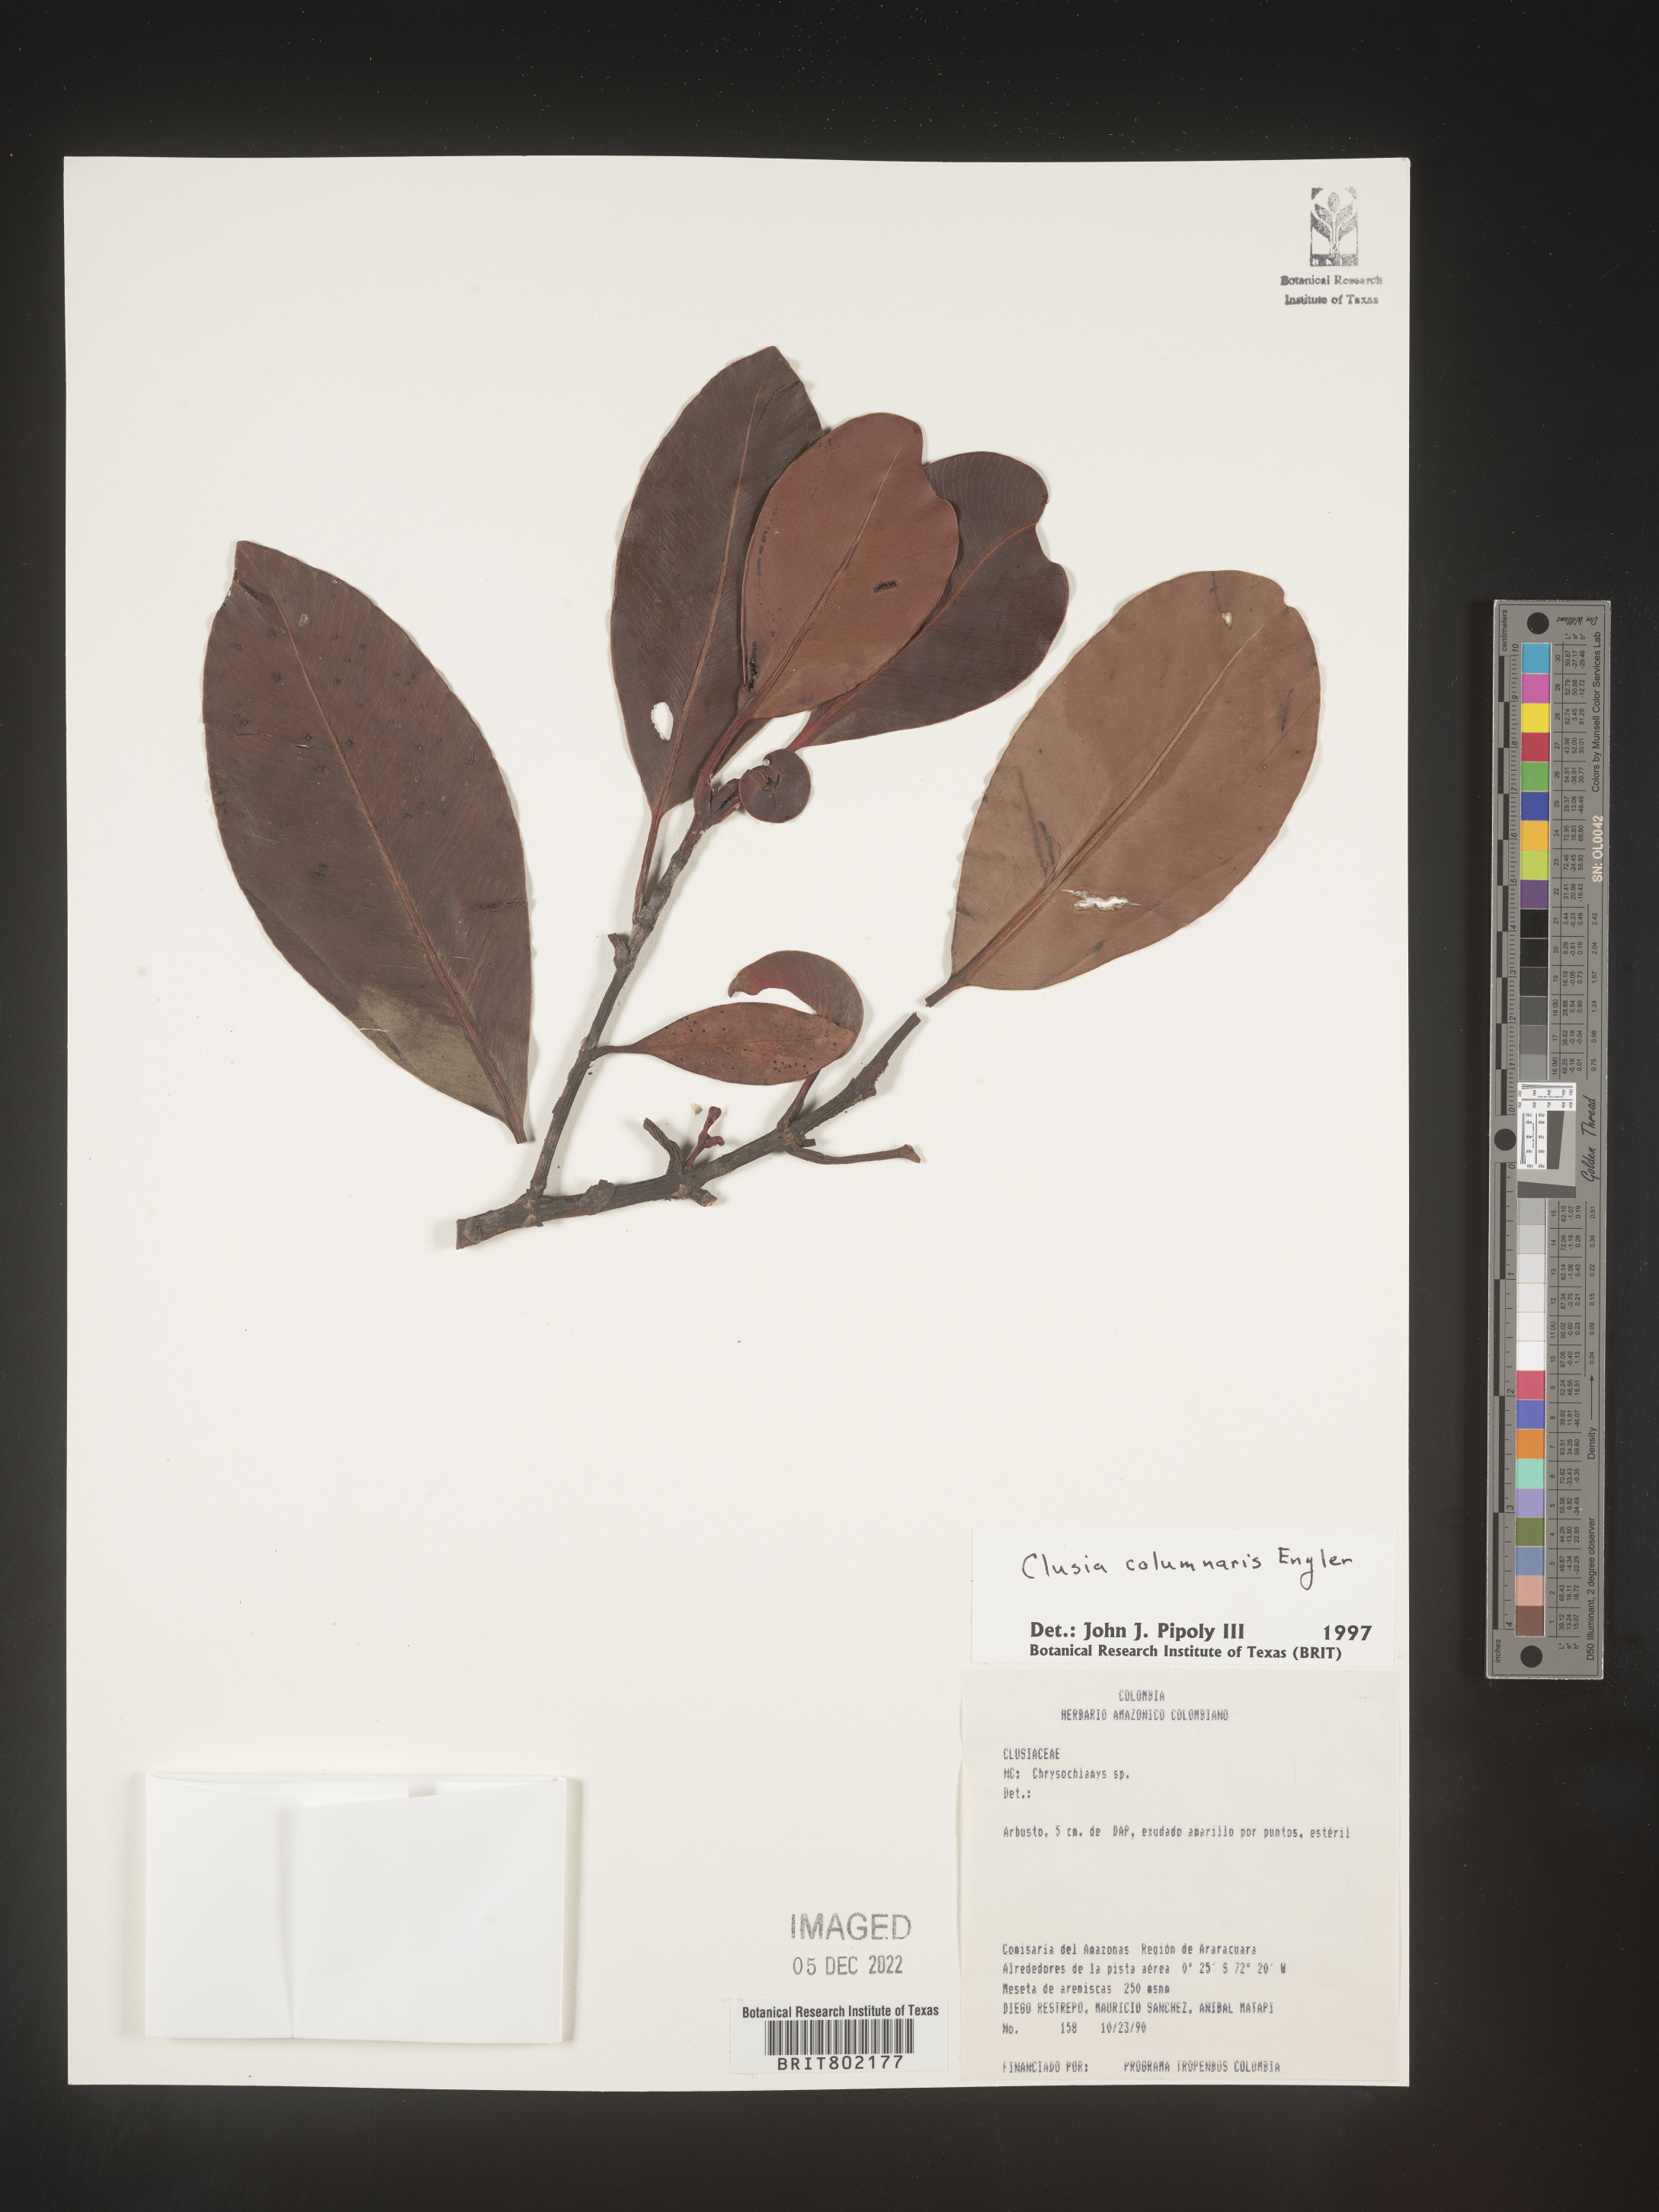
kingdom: Plantae
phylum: Tracheophyta
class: Magnoliopsida
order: Malpighiales
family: Clusiaceae
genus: Clusia
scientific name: Clusia columnaris
